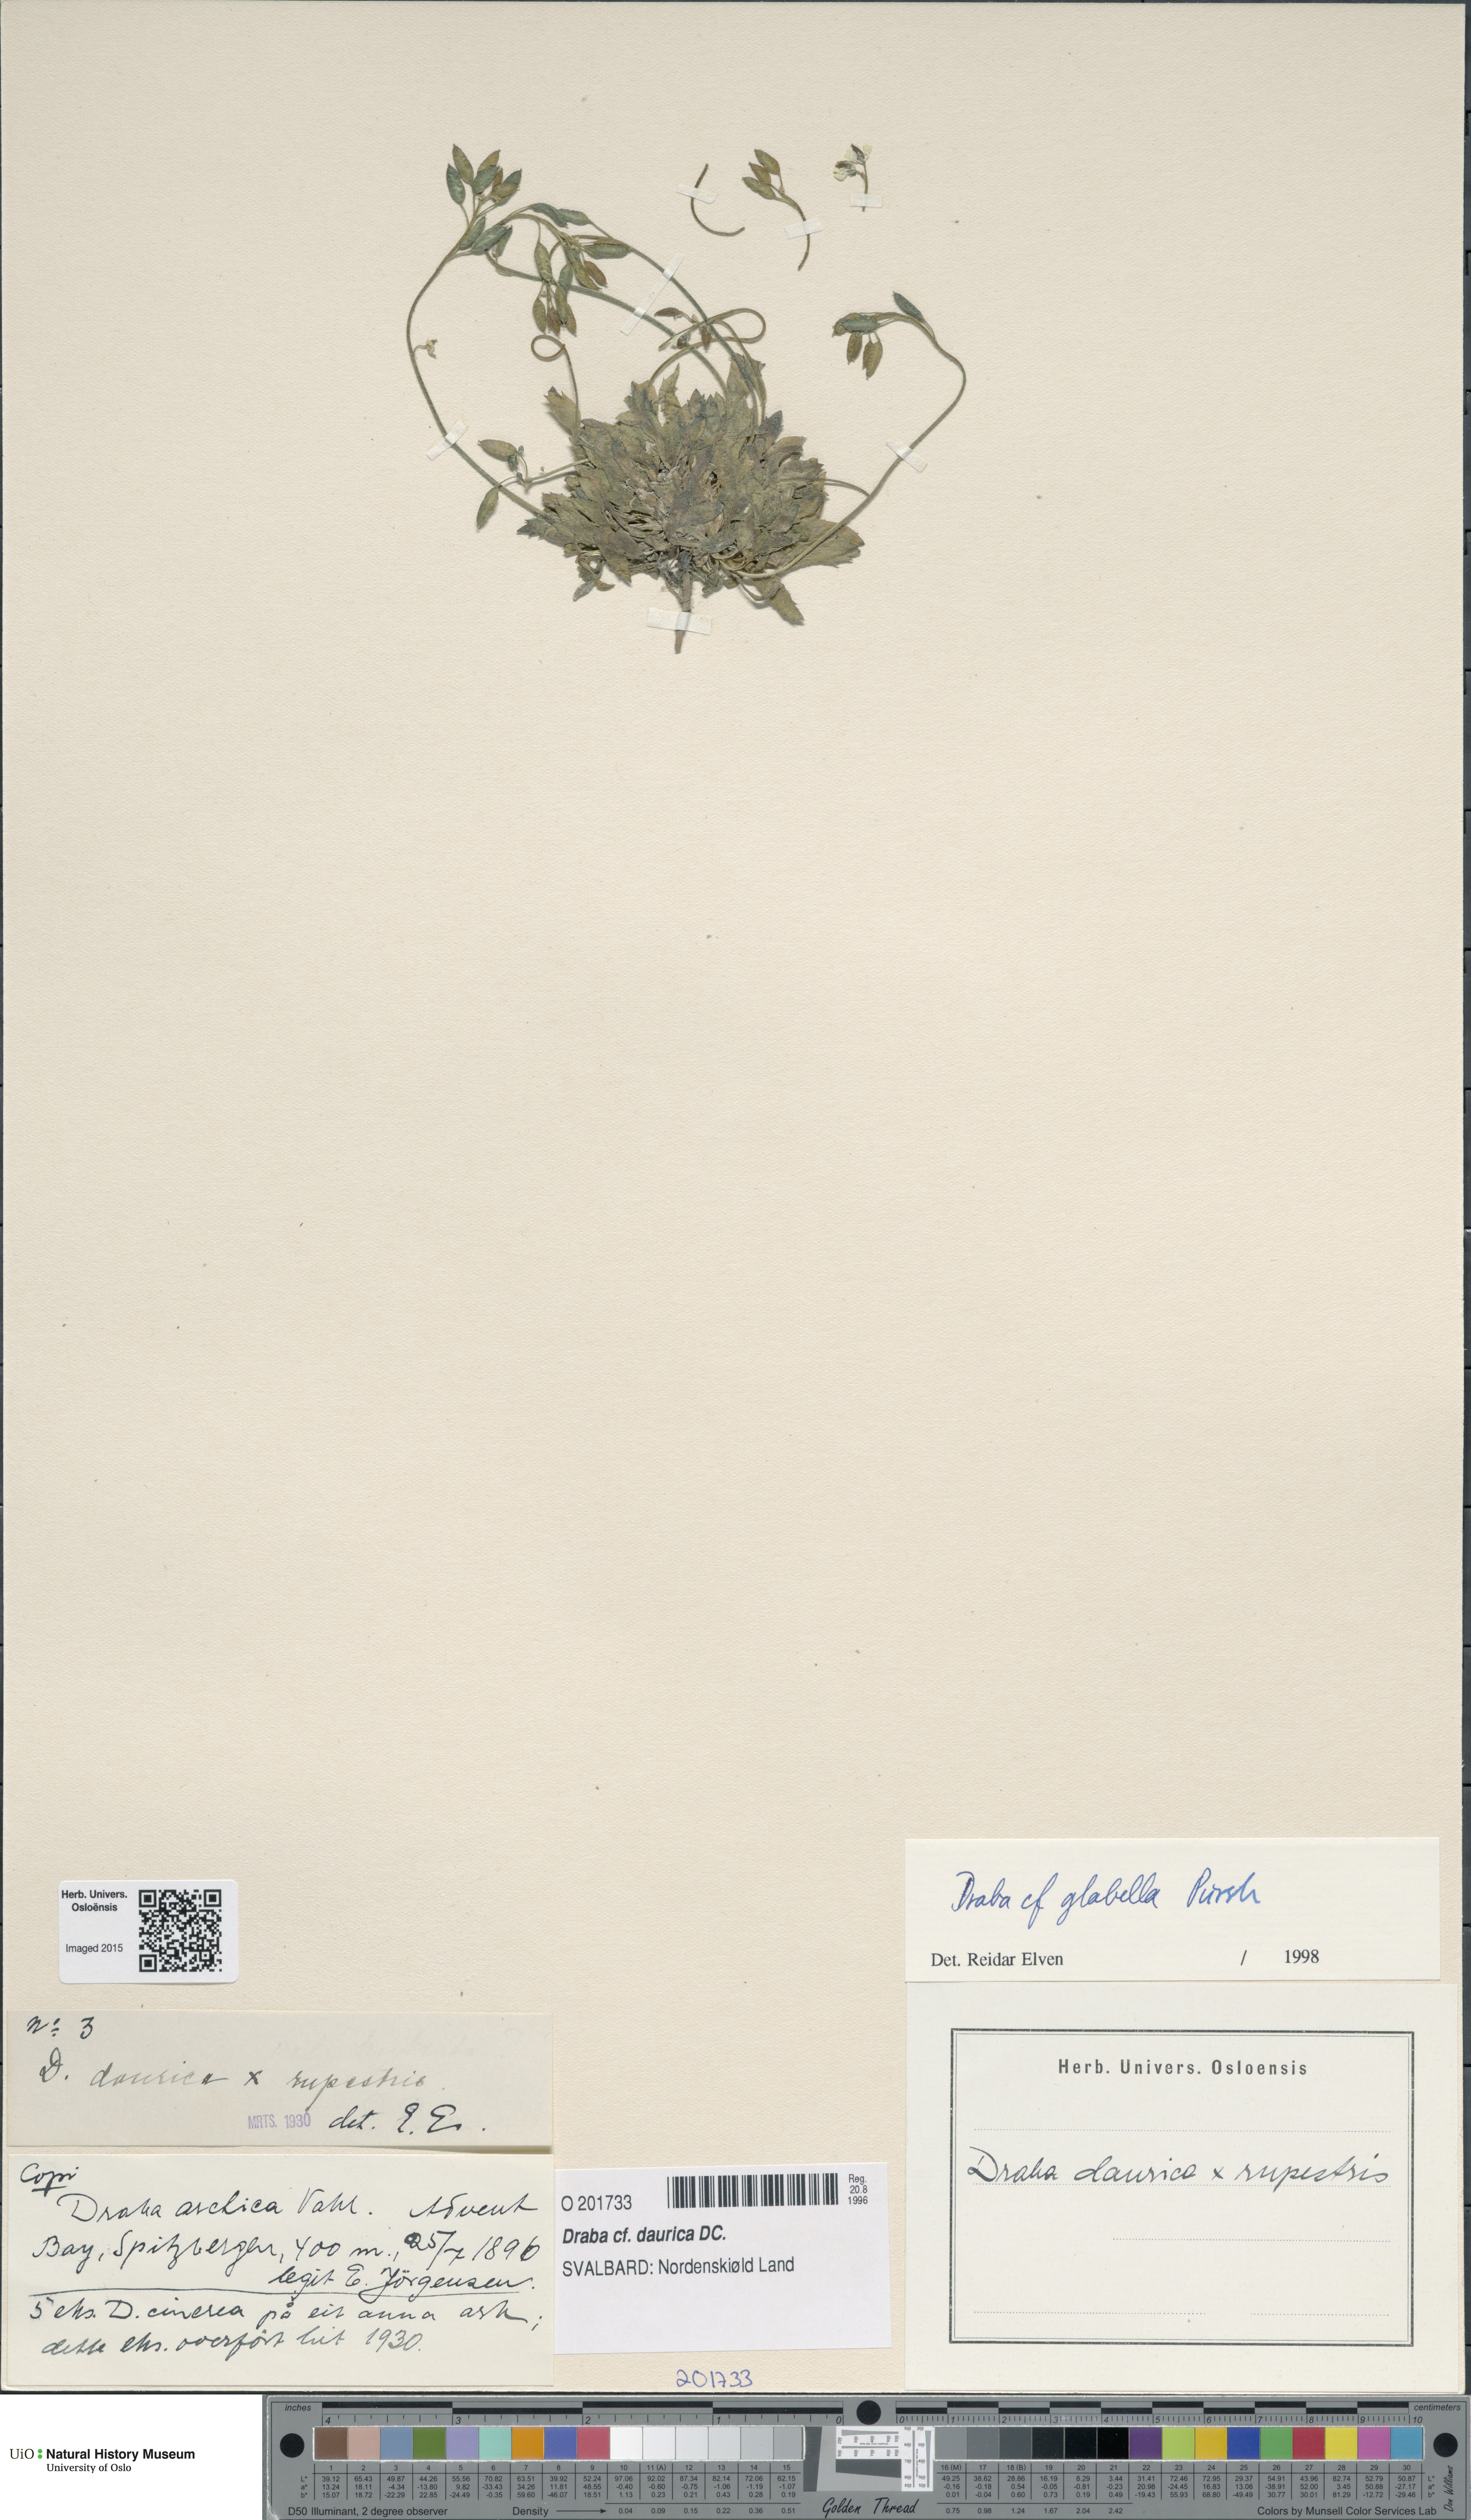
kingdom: Plantae
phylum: Tracheophyta
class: Magnoliopsida
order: Brassicales
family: Brassicaceae
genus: Draba
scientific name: Draba glabella
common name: Glaucous draba
